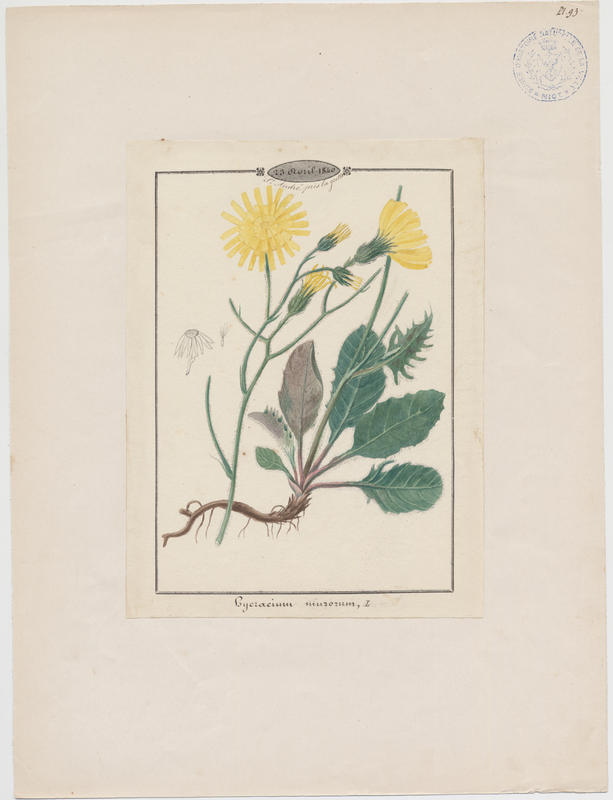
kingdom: Plantae
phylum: Tracheophyta
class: Magnoliopsida
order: Asterales
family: Asteraceae
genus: Hieracium
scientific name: Hieracium murorum
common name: Wall hawkweed
